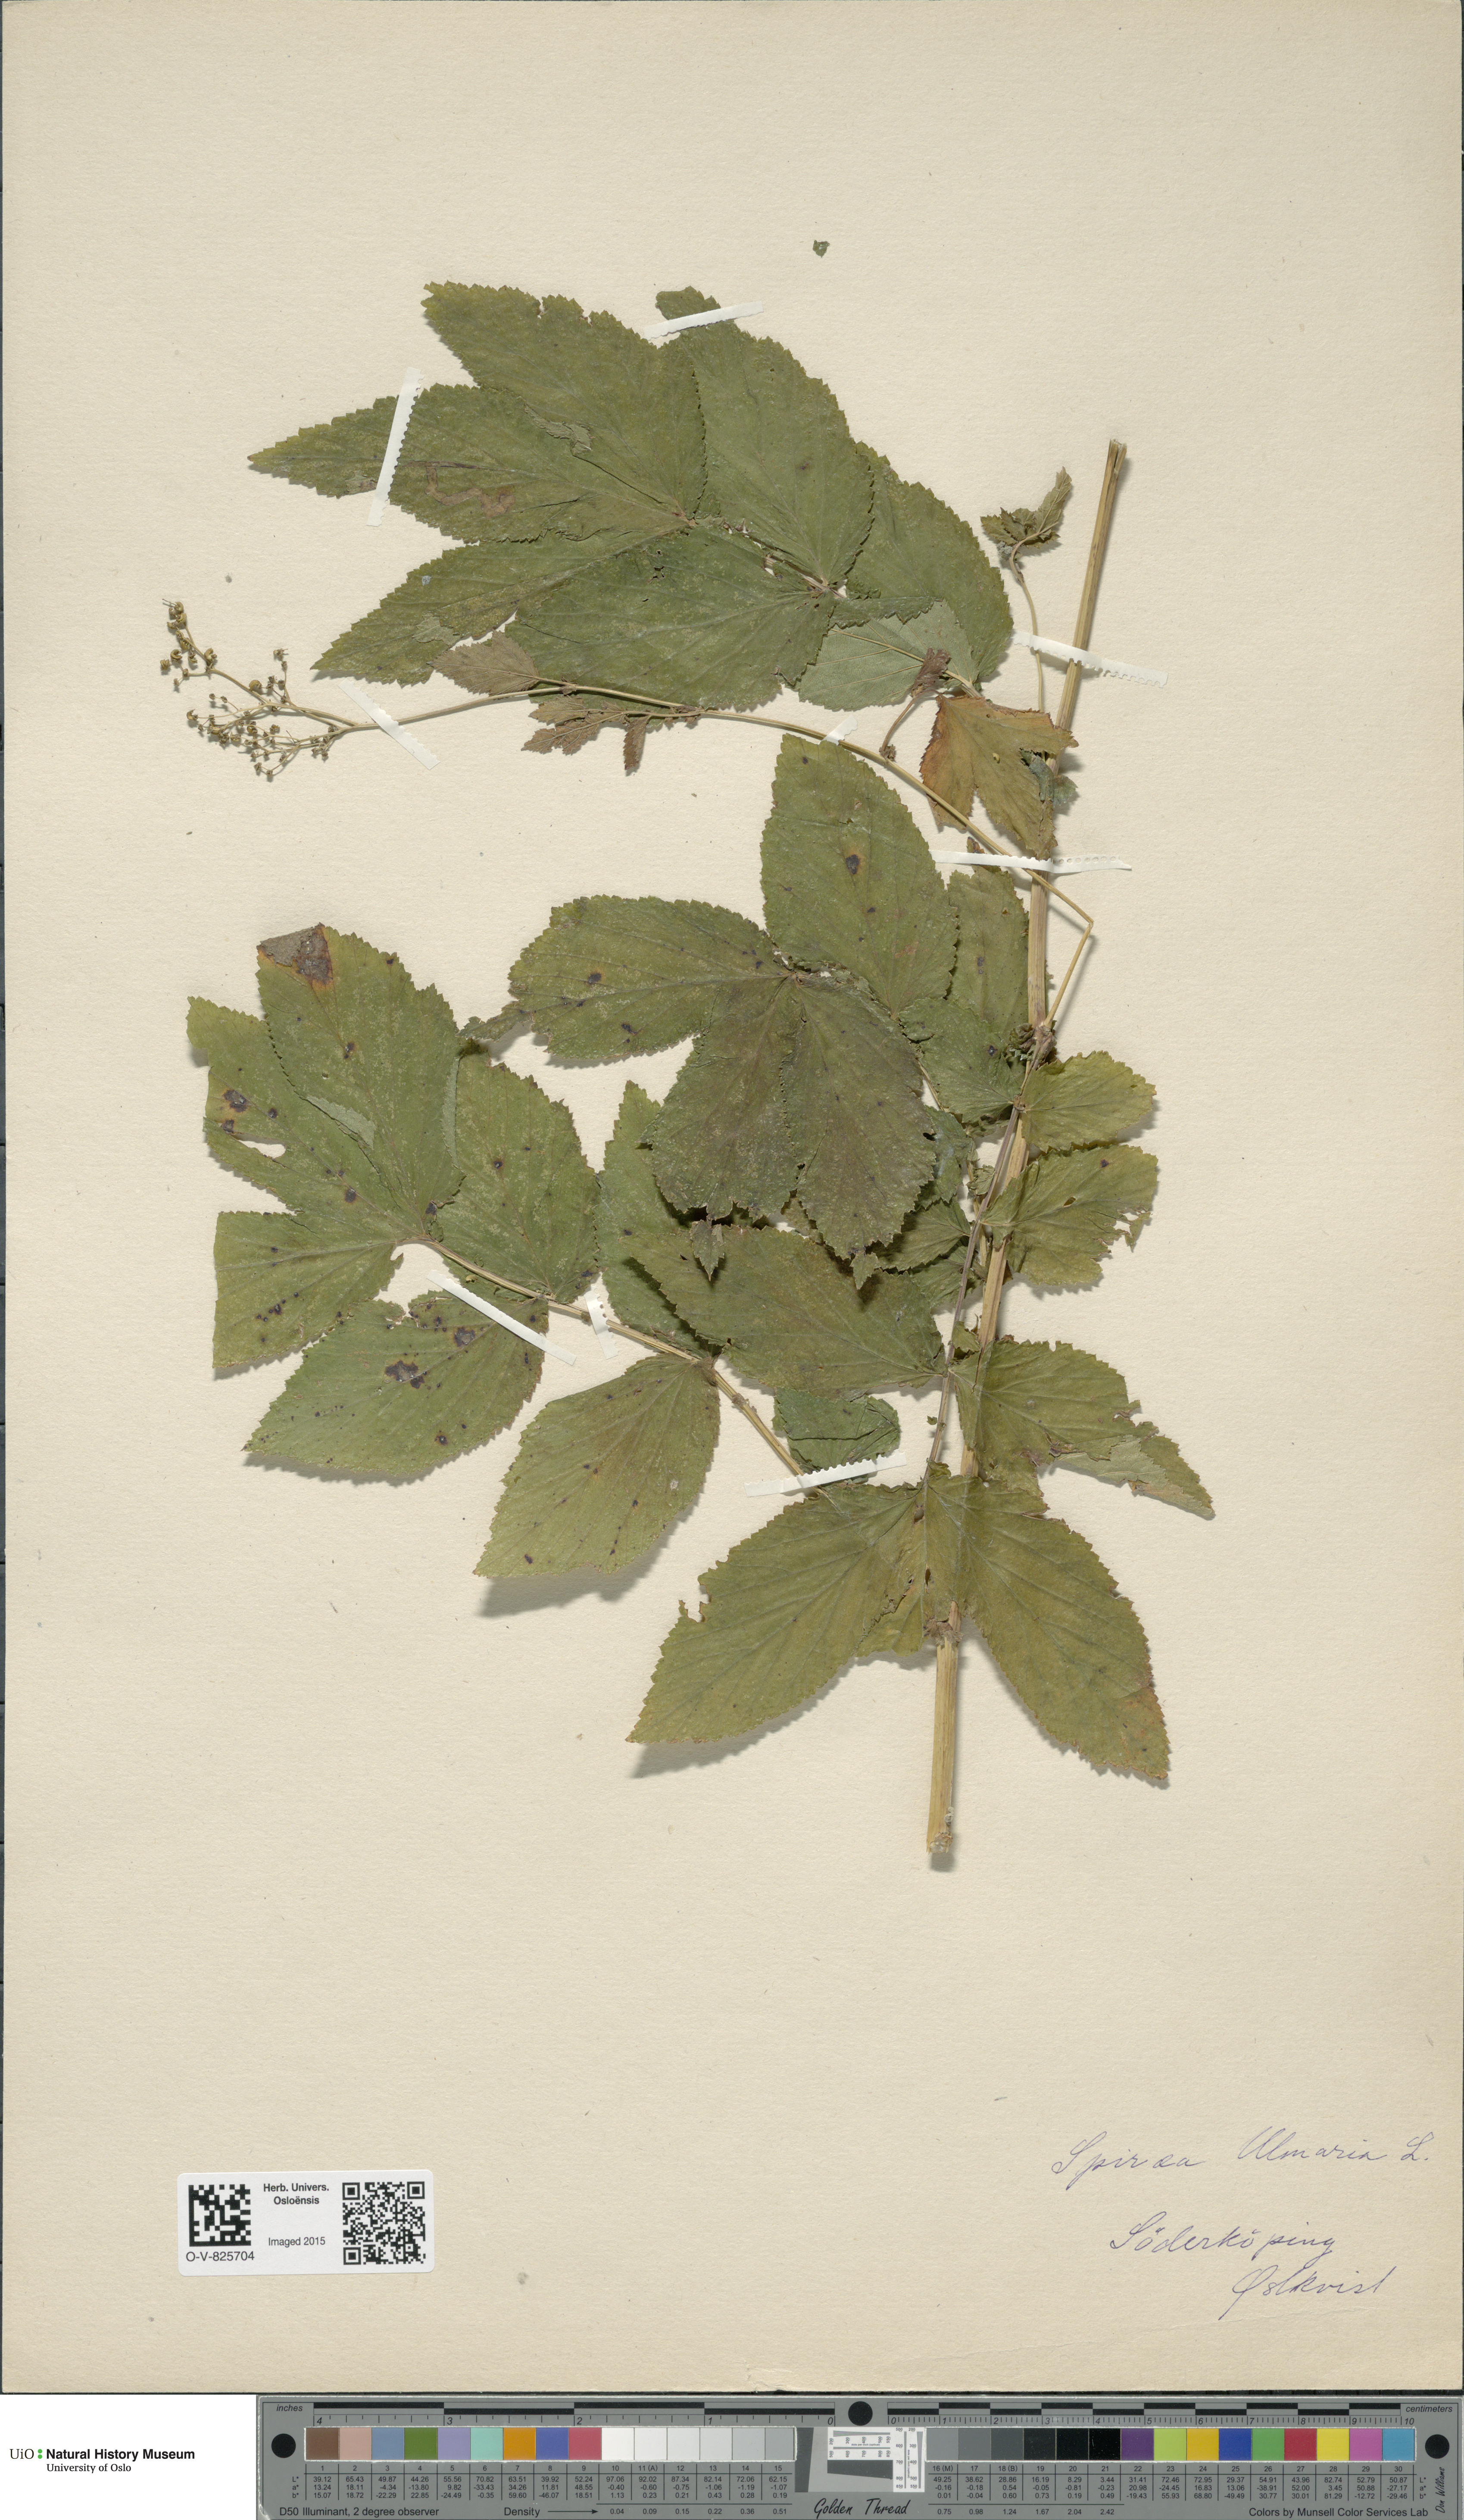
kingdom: Plantae
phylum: Tracheophyta
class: Magnoliopsida
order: Rosales
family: Rosaceae
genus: Filipendula
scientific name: Filipendula ulmaria
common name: Meadowsweet
